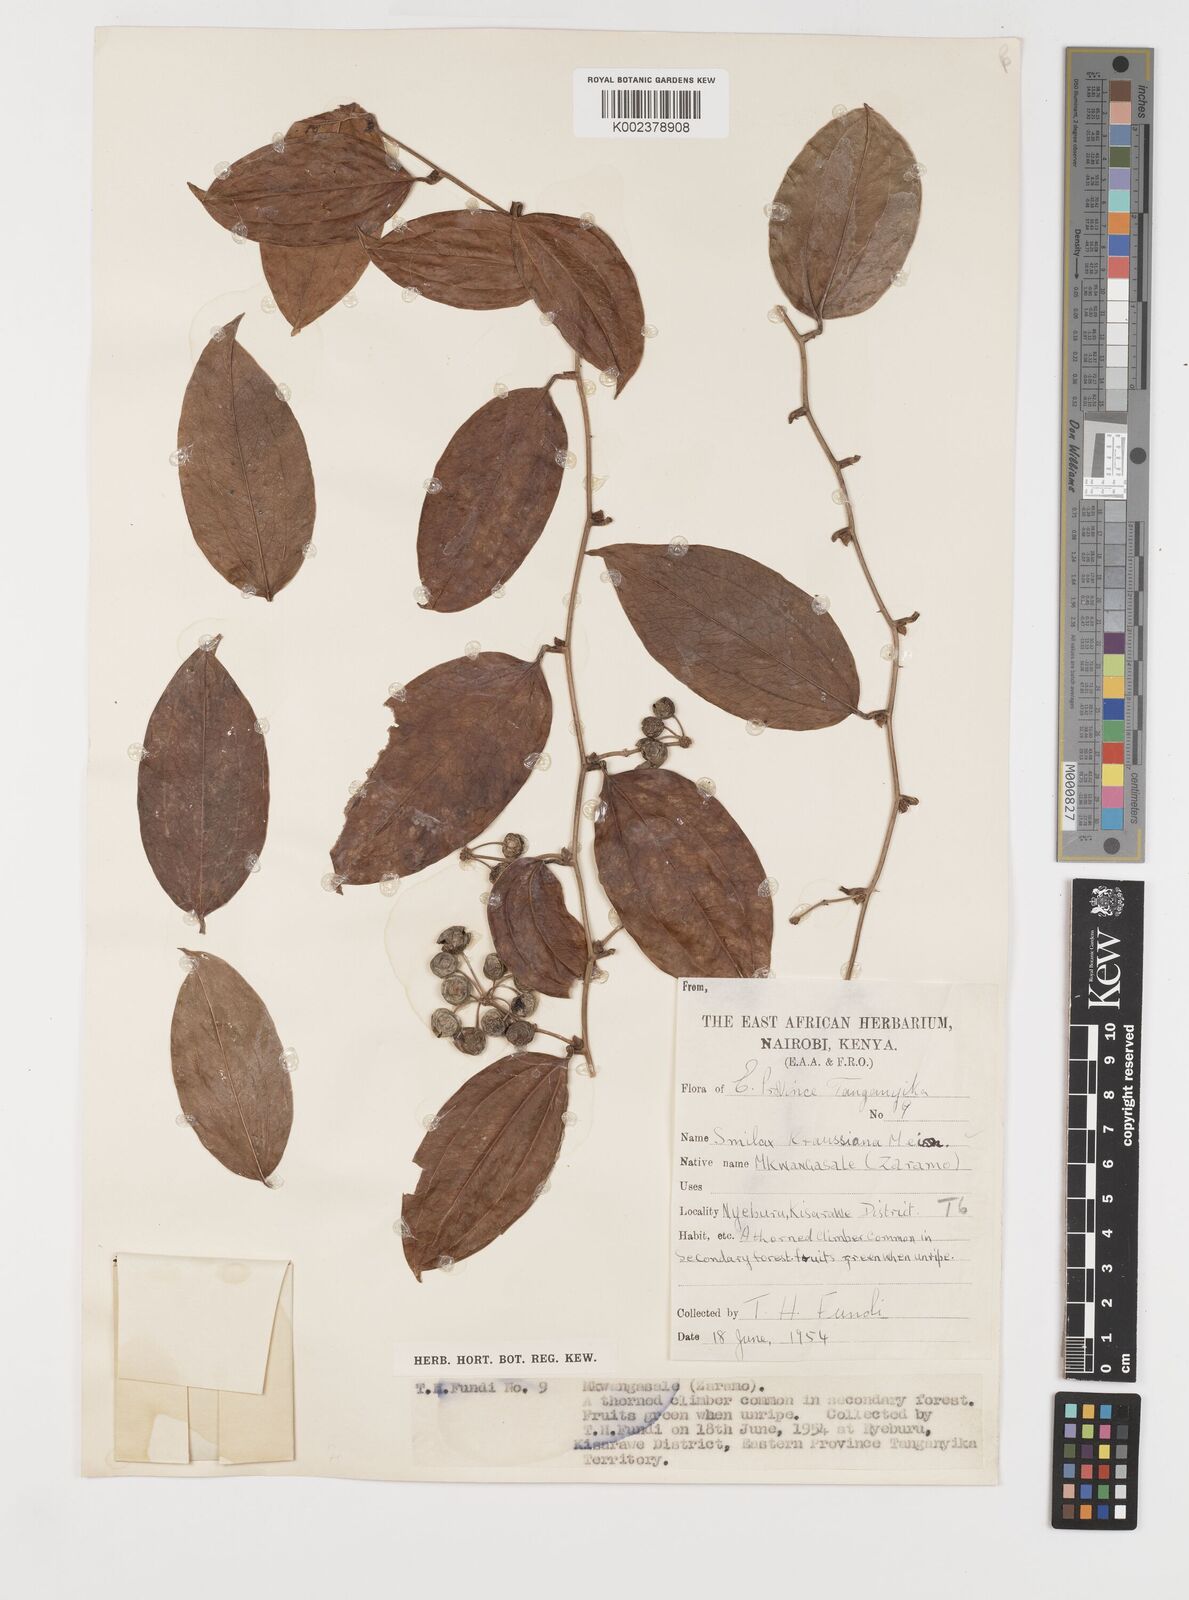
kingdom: Plantae
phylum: Tracheophyta
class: Liliopsida
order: Liliales
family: Smilacaceae
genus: Smilax
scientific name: Smilax anceps
